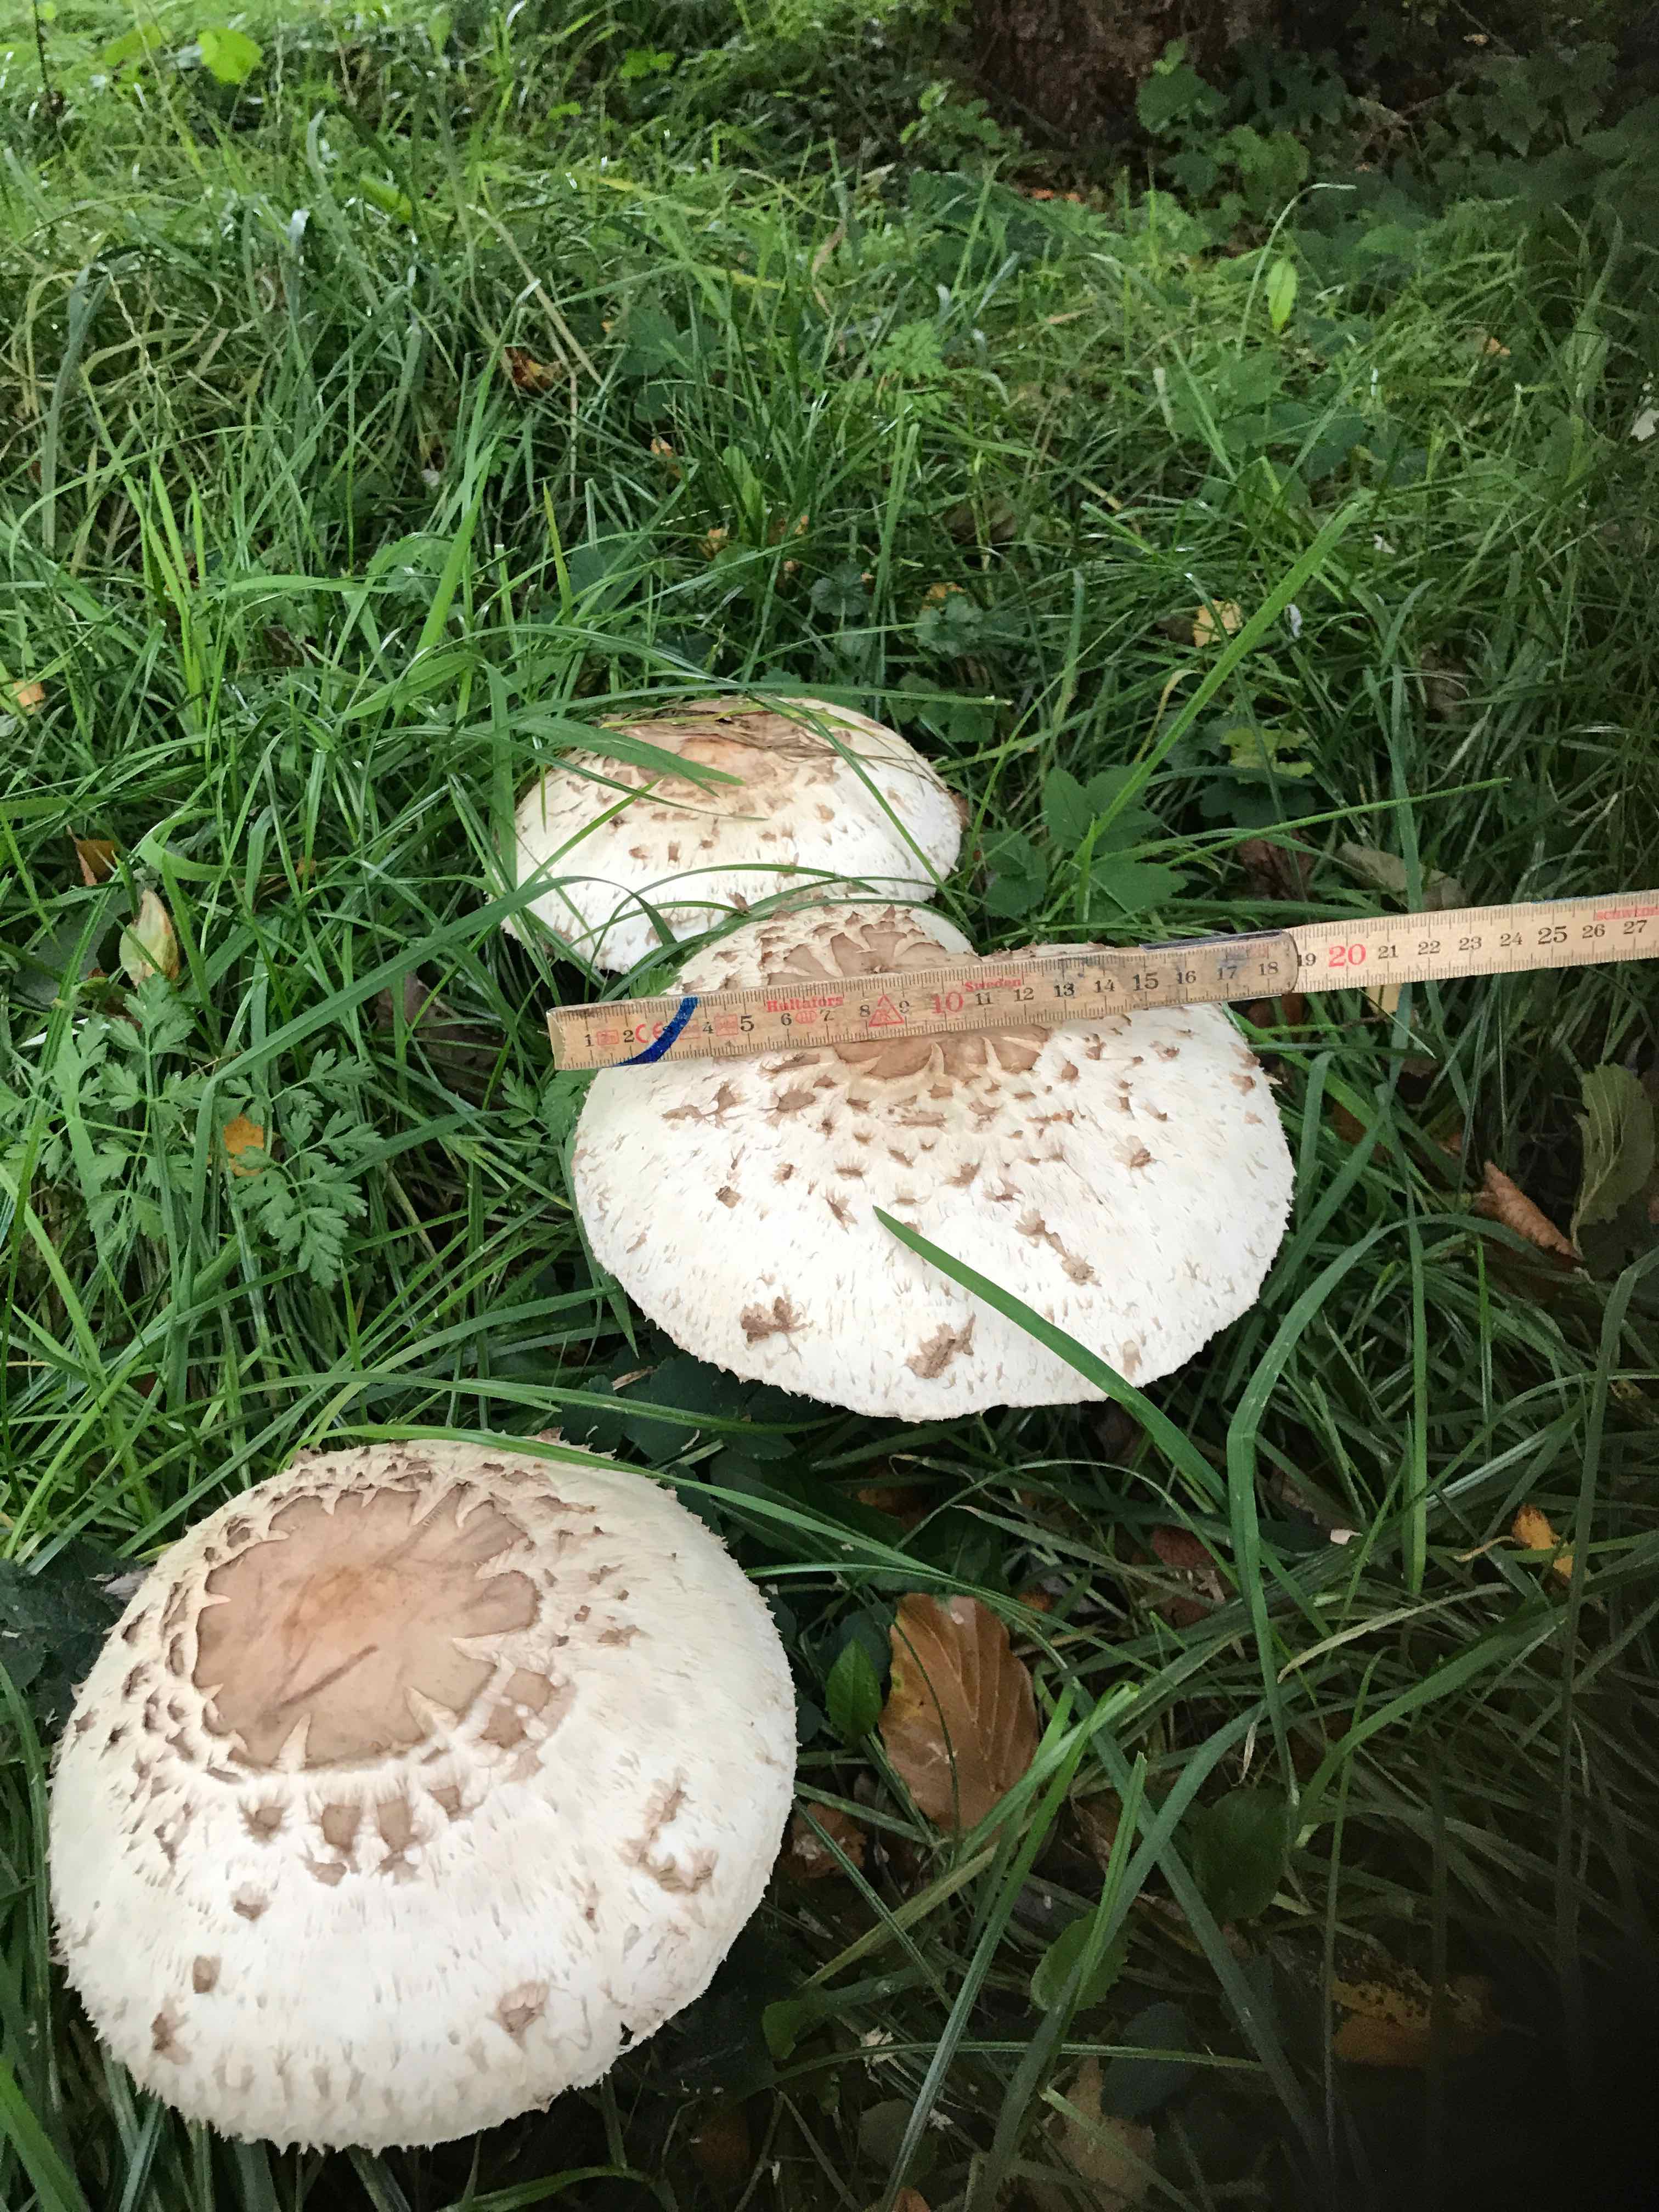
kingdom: Fungi
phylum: Basidiomycota
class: Agaricomycetes
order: Agaricales
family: Agaricaceae
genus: Chlorophyllum
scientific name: Chlorophyllum
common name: rabarberhat
